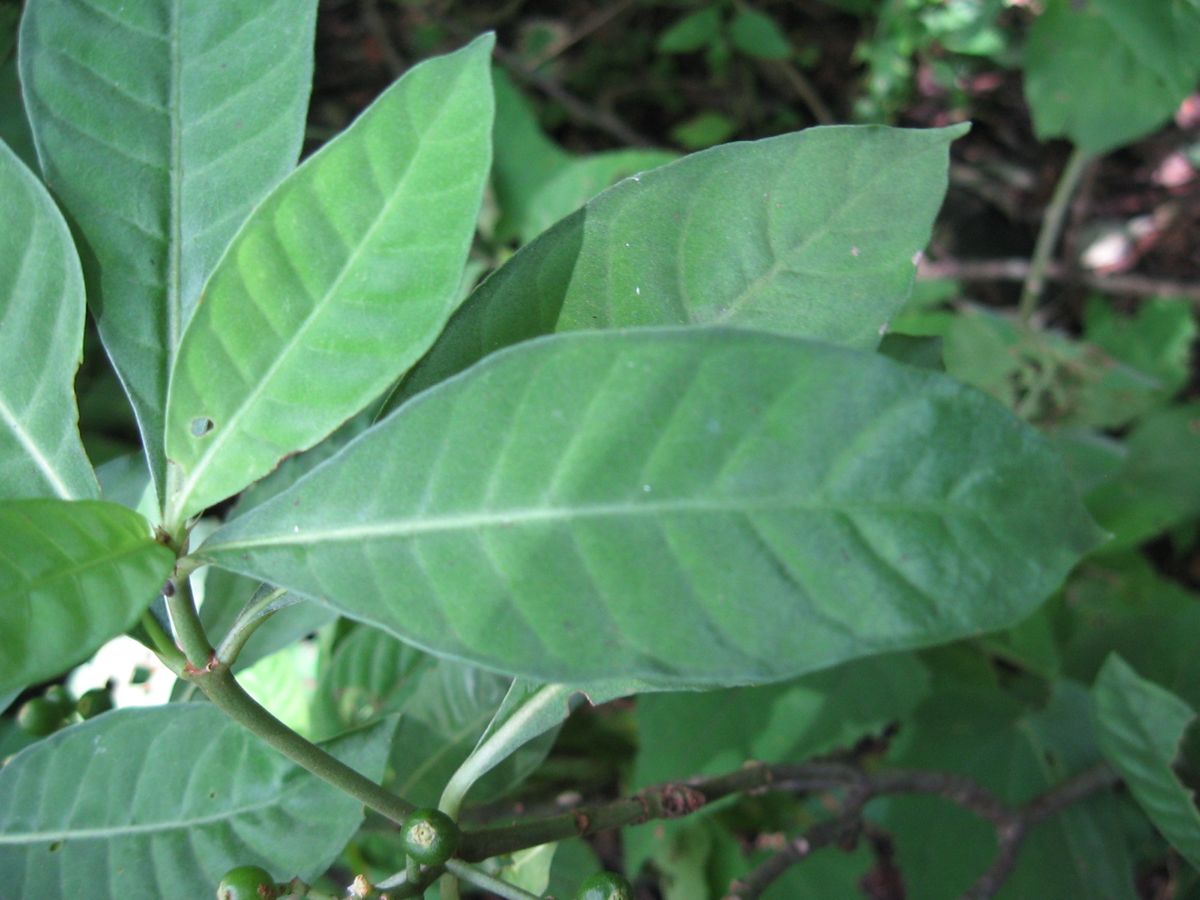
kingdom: Plantae
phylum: Tracheophyta
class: Magnoliopsida
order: Gentianales
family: Rubiaceae
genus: Psychotria
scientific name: Psychotria carthagenensis
